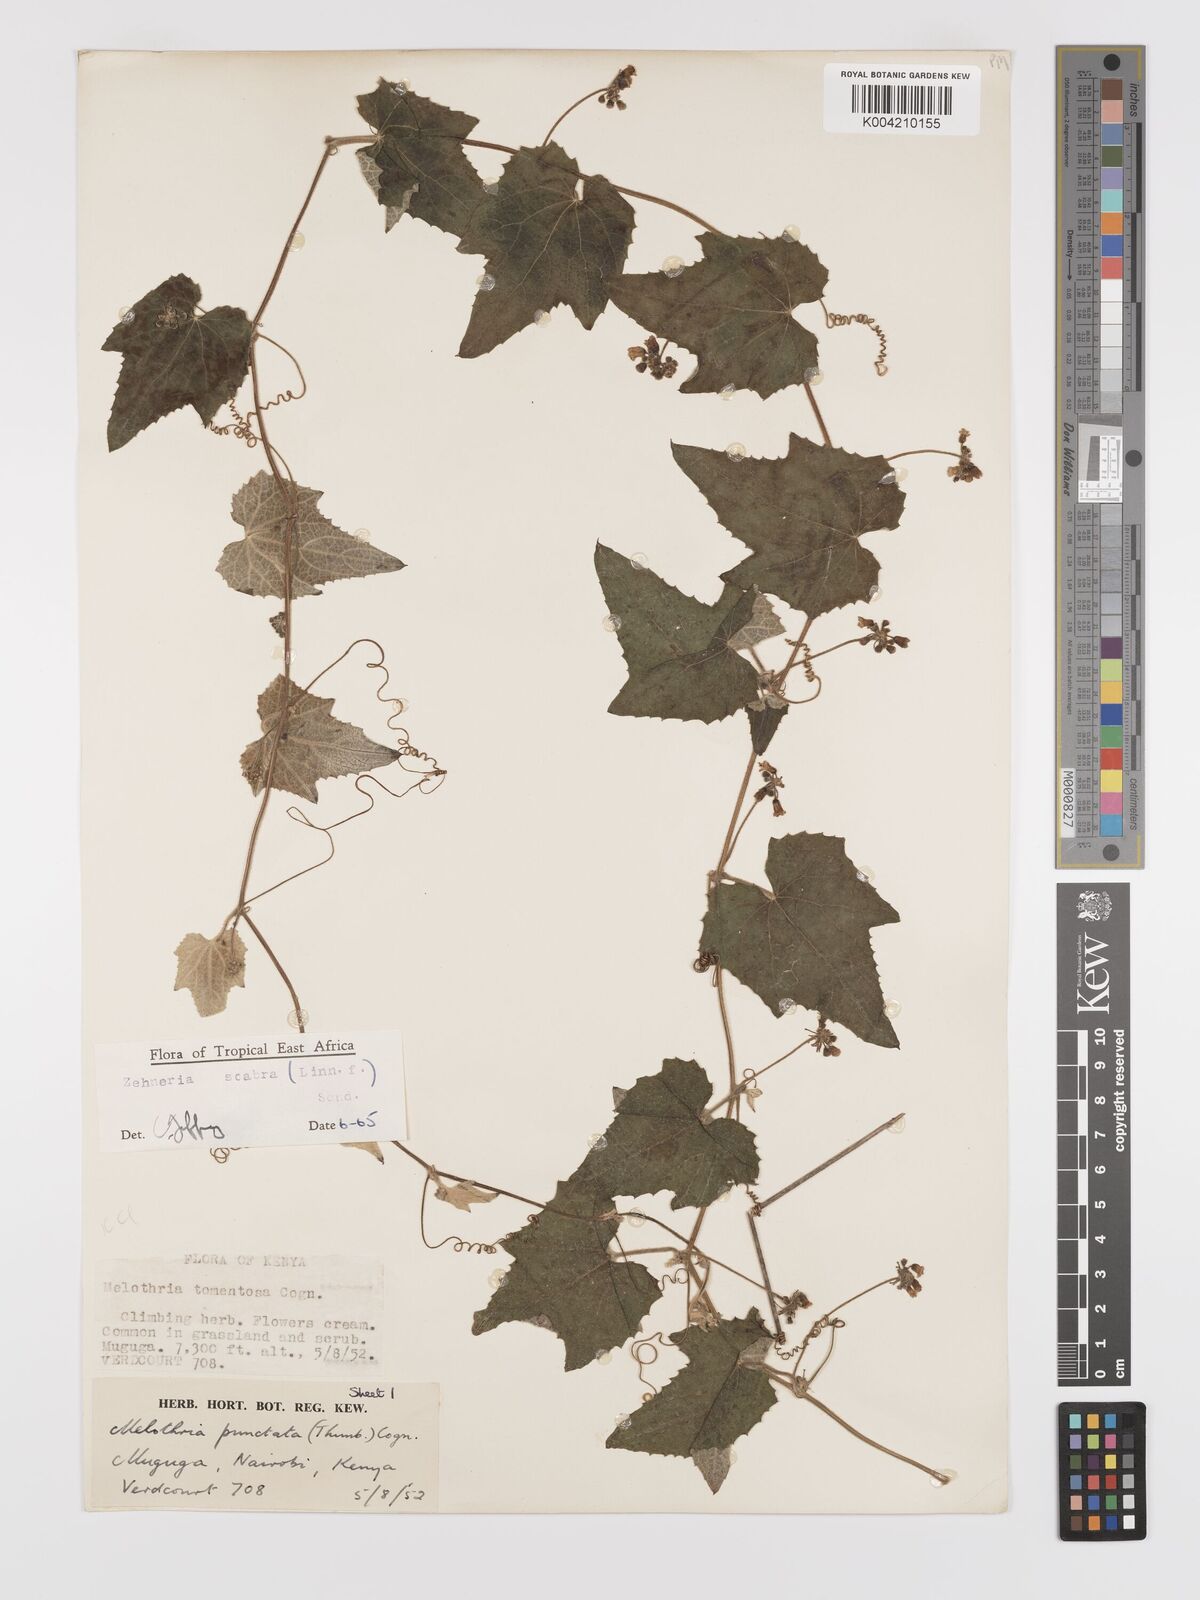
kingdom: Plantae
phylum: Tracheophyta
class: Magnoliopsida
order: Cucurbitales
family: Cucurbitaceae
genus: Zehneria
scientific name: Zehneria scabra
